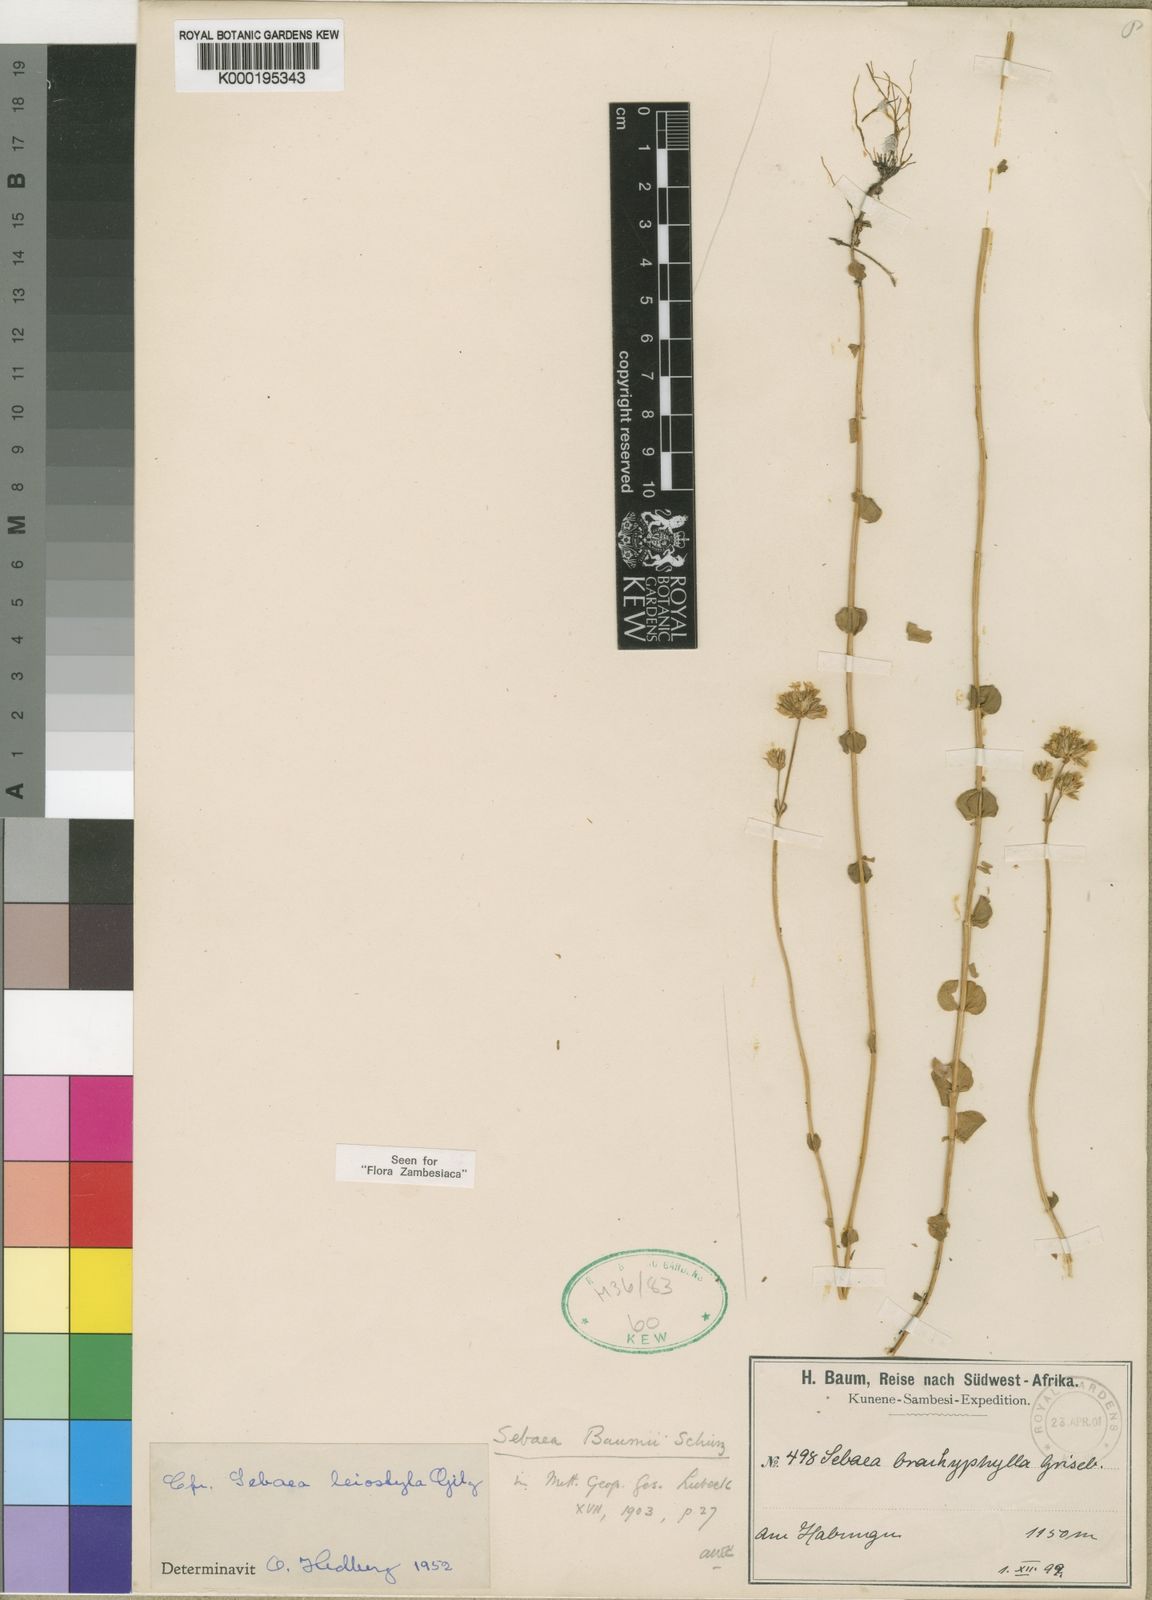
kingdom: Plantae
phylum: Tracheophyta
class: Magnoliopsida
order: Gentianales
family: Gentianaceae
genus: Sebaea
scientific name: Sebaea brachyphylla
